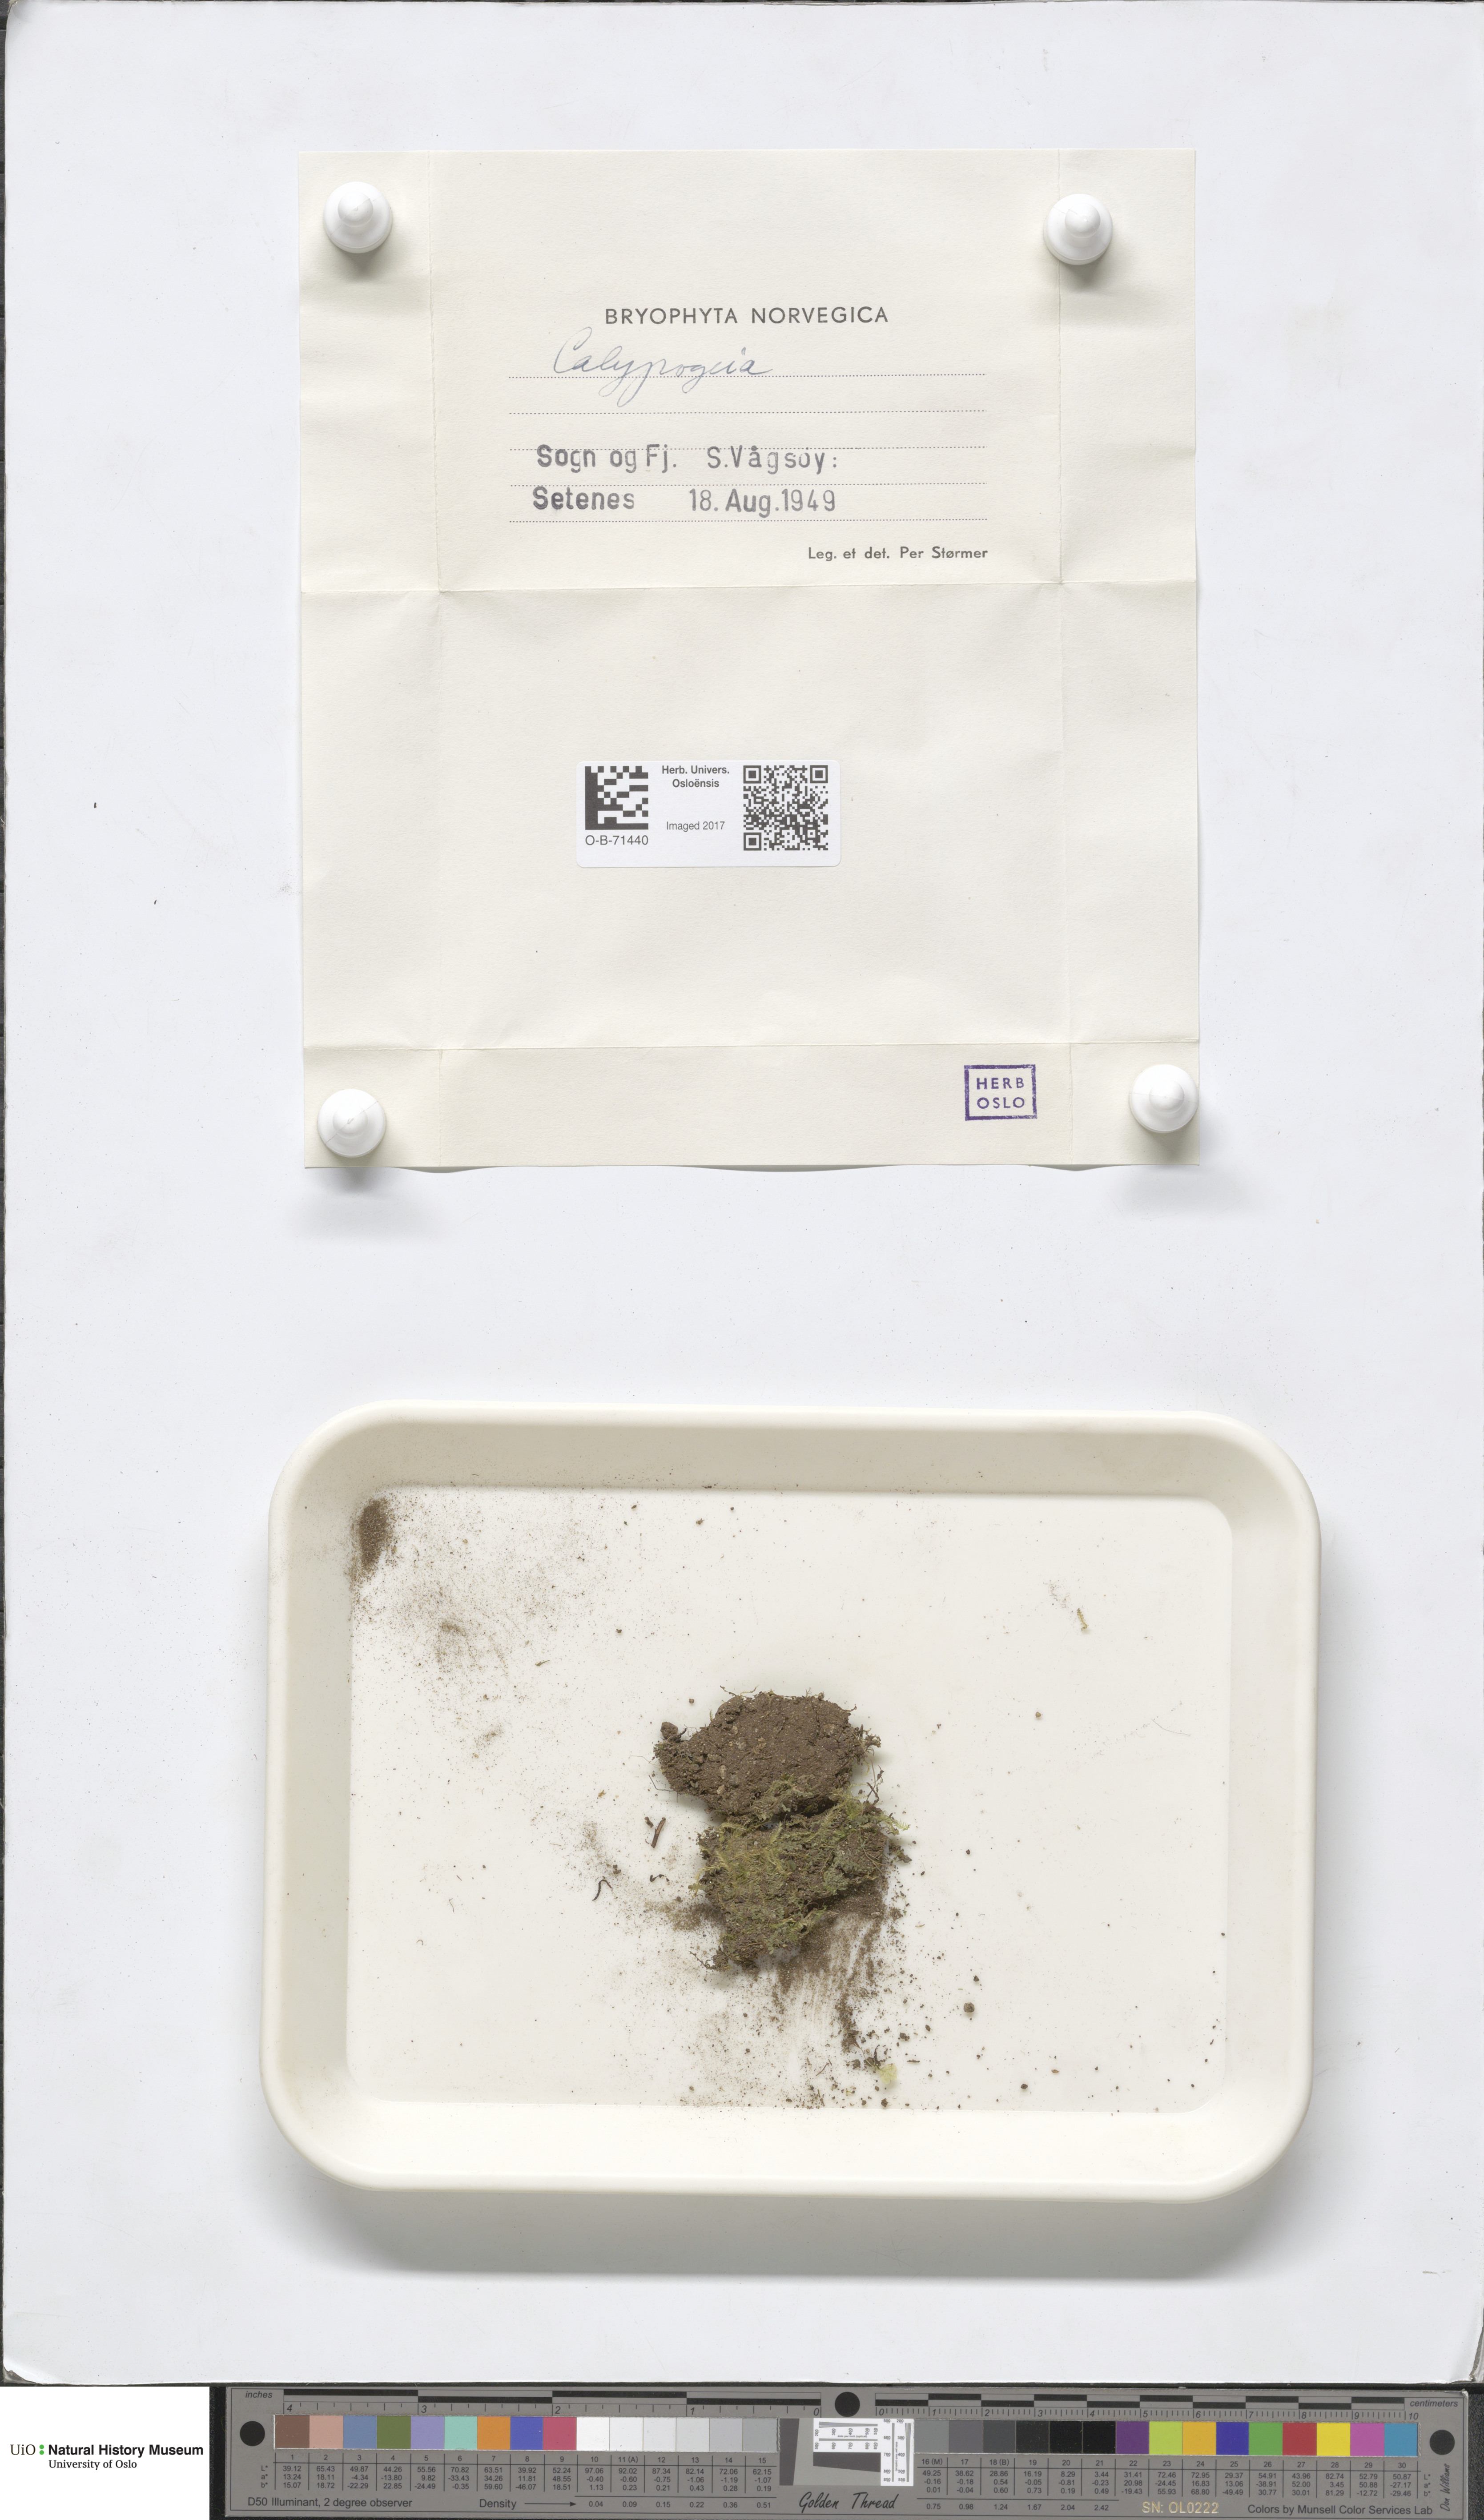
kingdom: Plantae
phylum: Marchantiophyta
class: Jungermanniopsida
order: Jungermanniales
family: Calypogeiaceae
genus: Calypogeia
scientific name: Calypogeia
